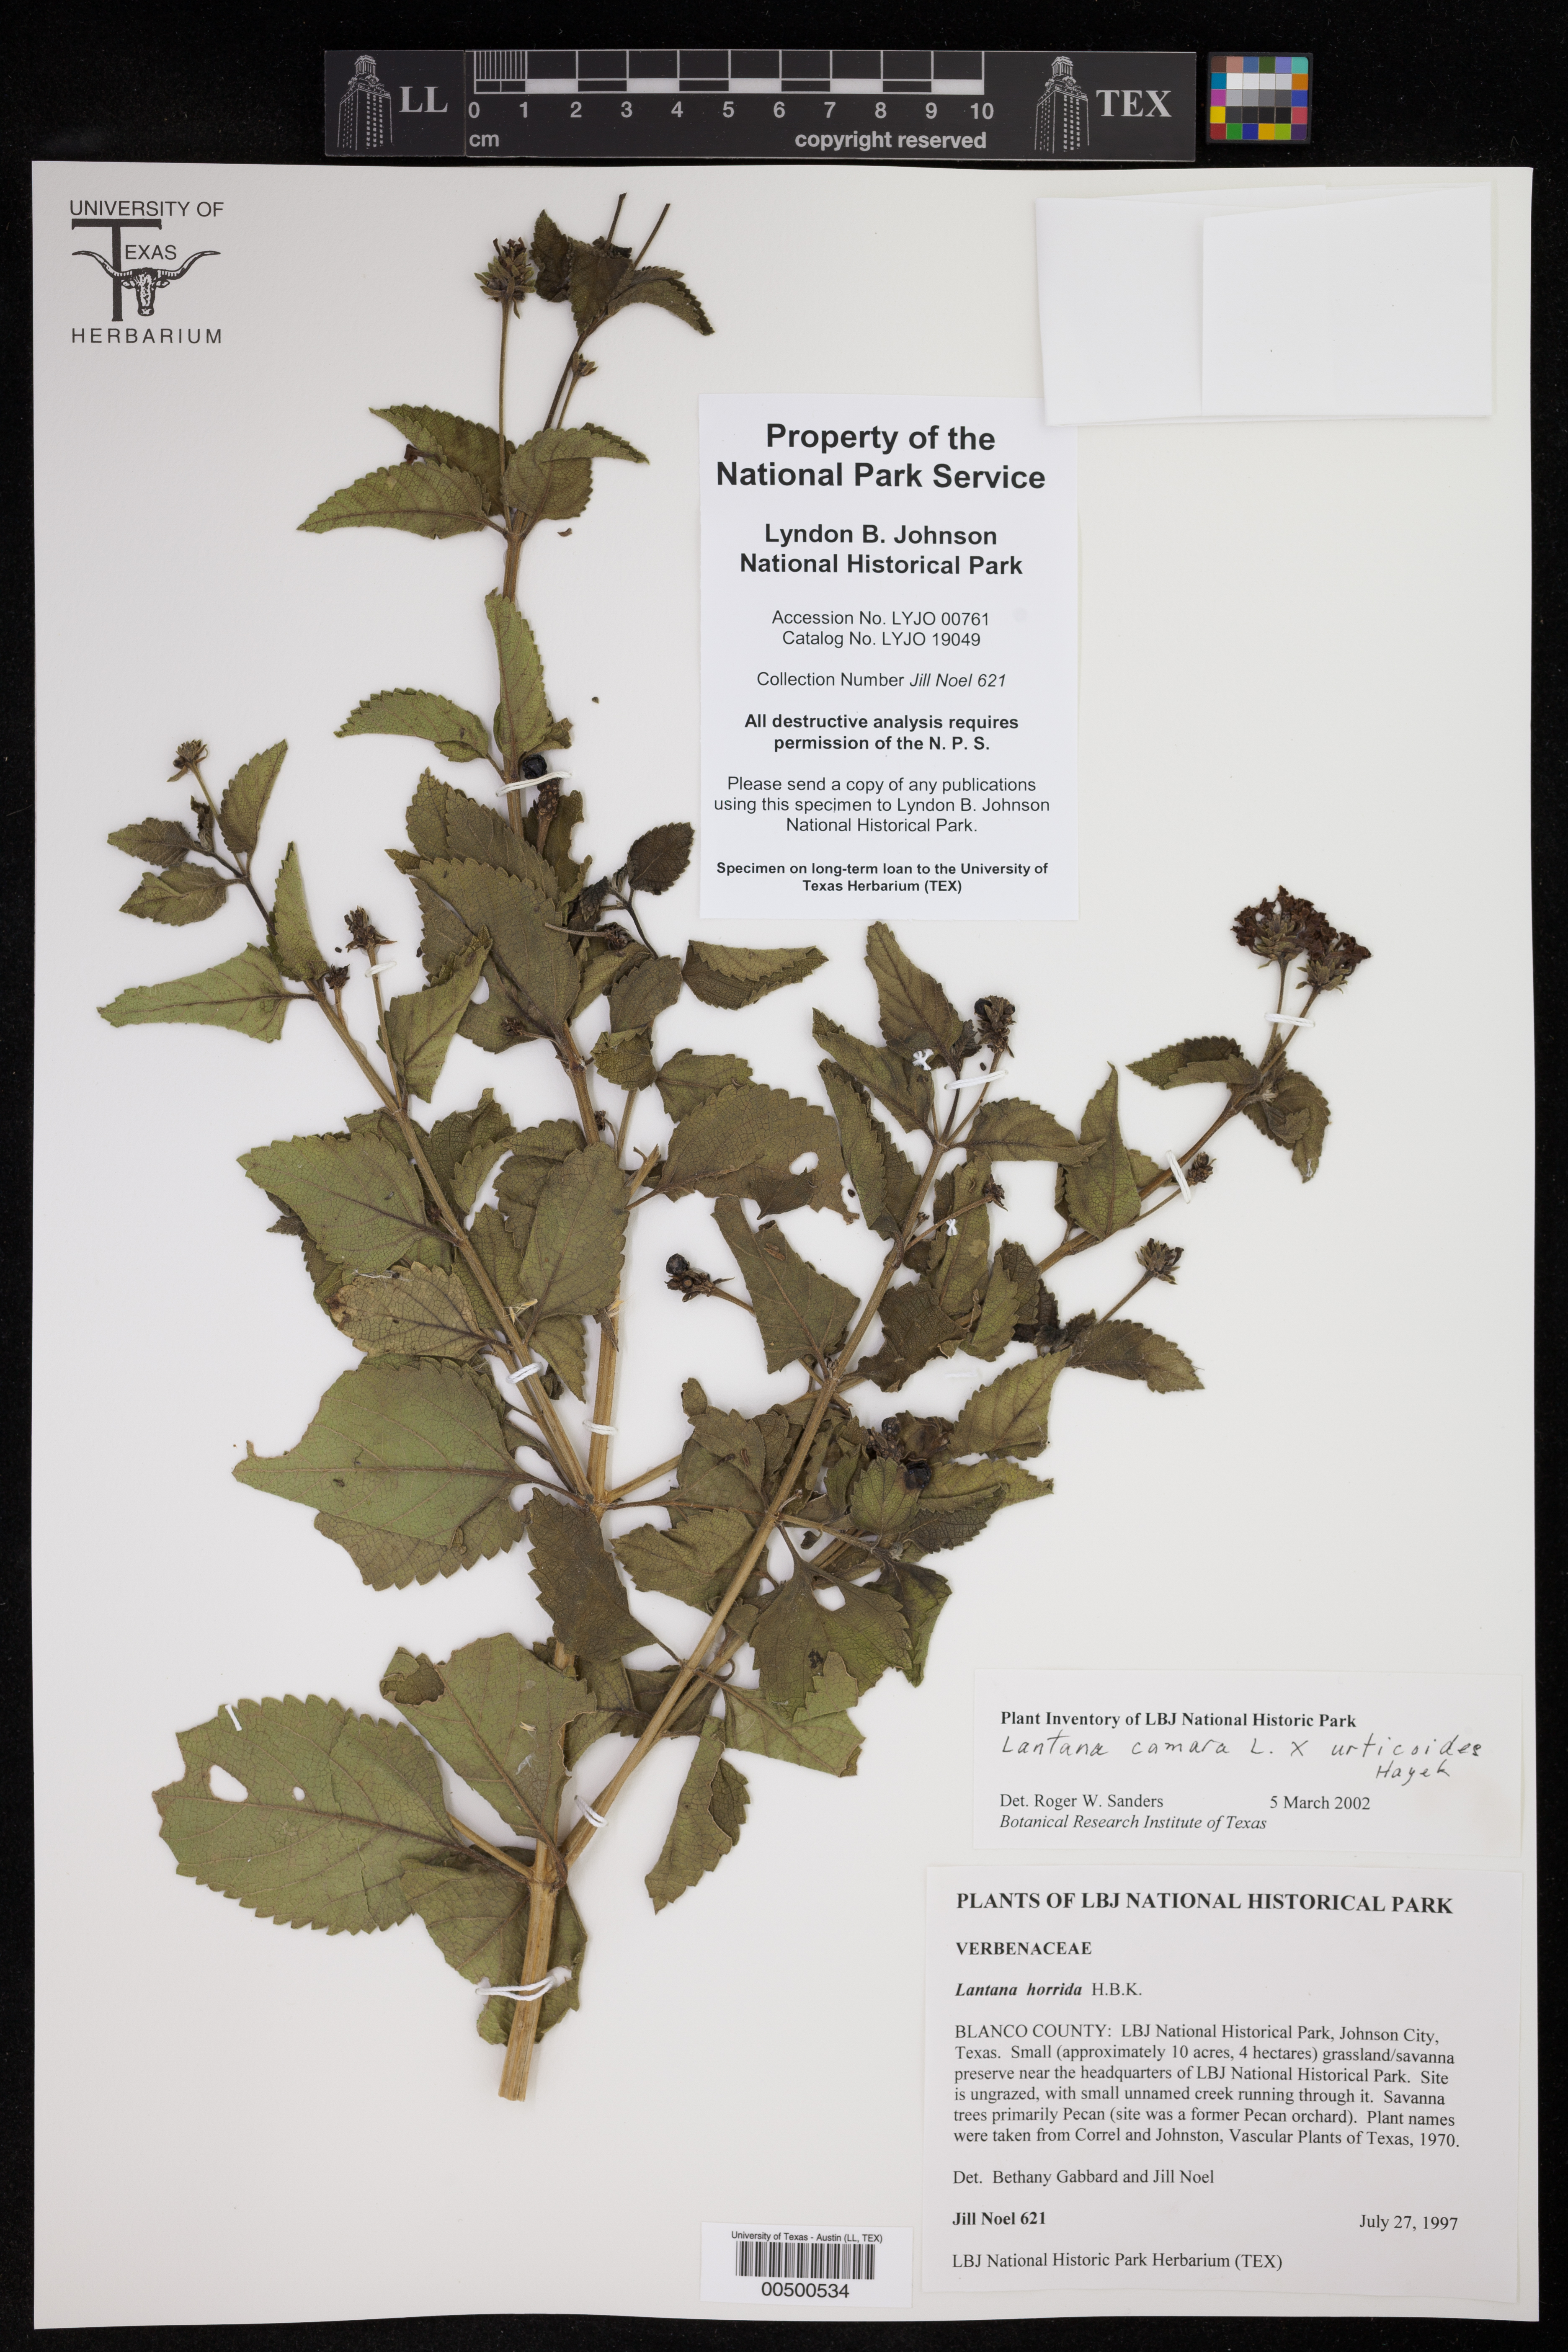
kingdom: Plantae
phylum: Tracheophyta
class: Magnoliopsida
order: Lamiales
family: Verbenaceae
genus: Lantana
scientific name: Lantana
